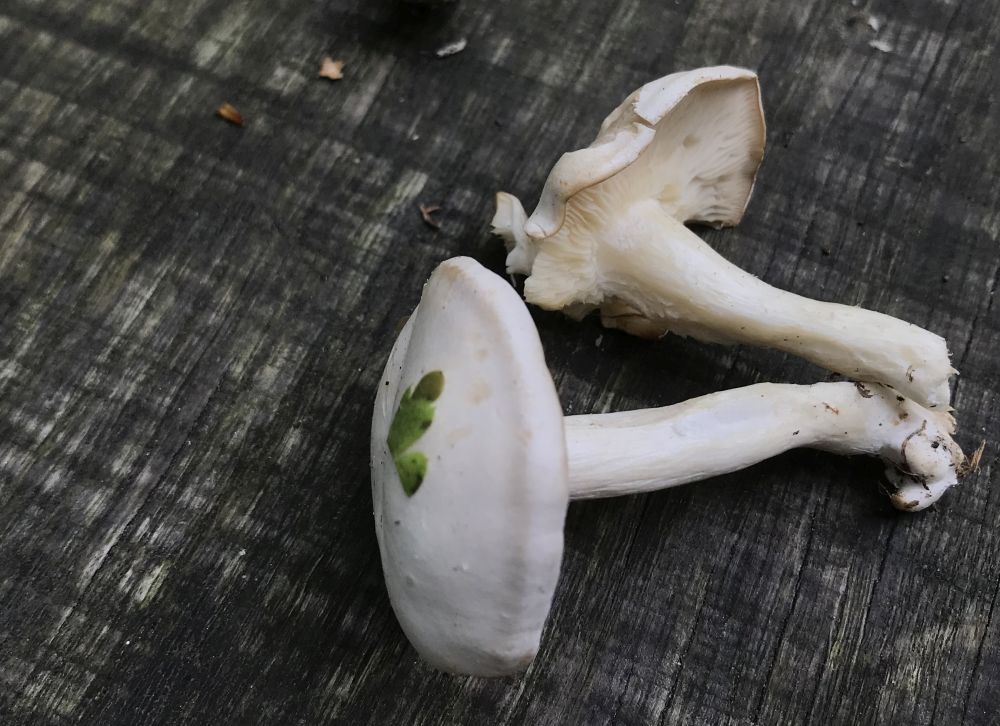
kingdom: Fungi
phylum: Basidiomycota
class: Agaricomycetes
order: Agaricales
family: Tricholomataceae
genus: Leucocybe
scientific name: Leucocybe connata
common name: knippe-tragthat
